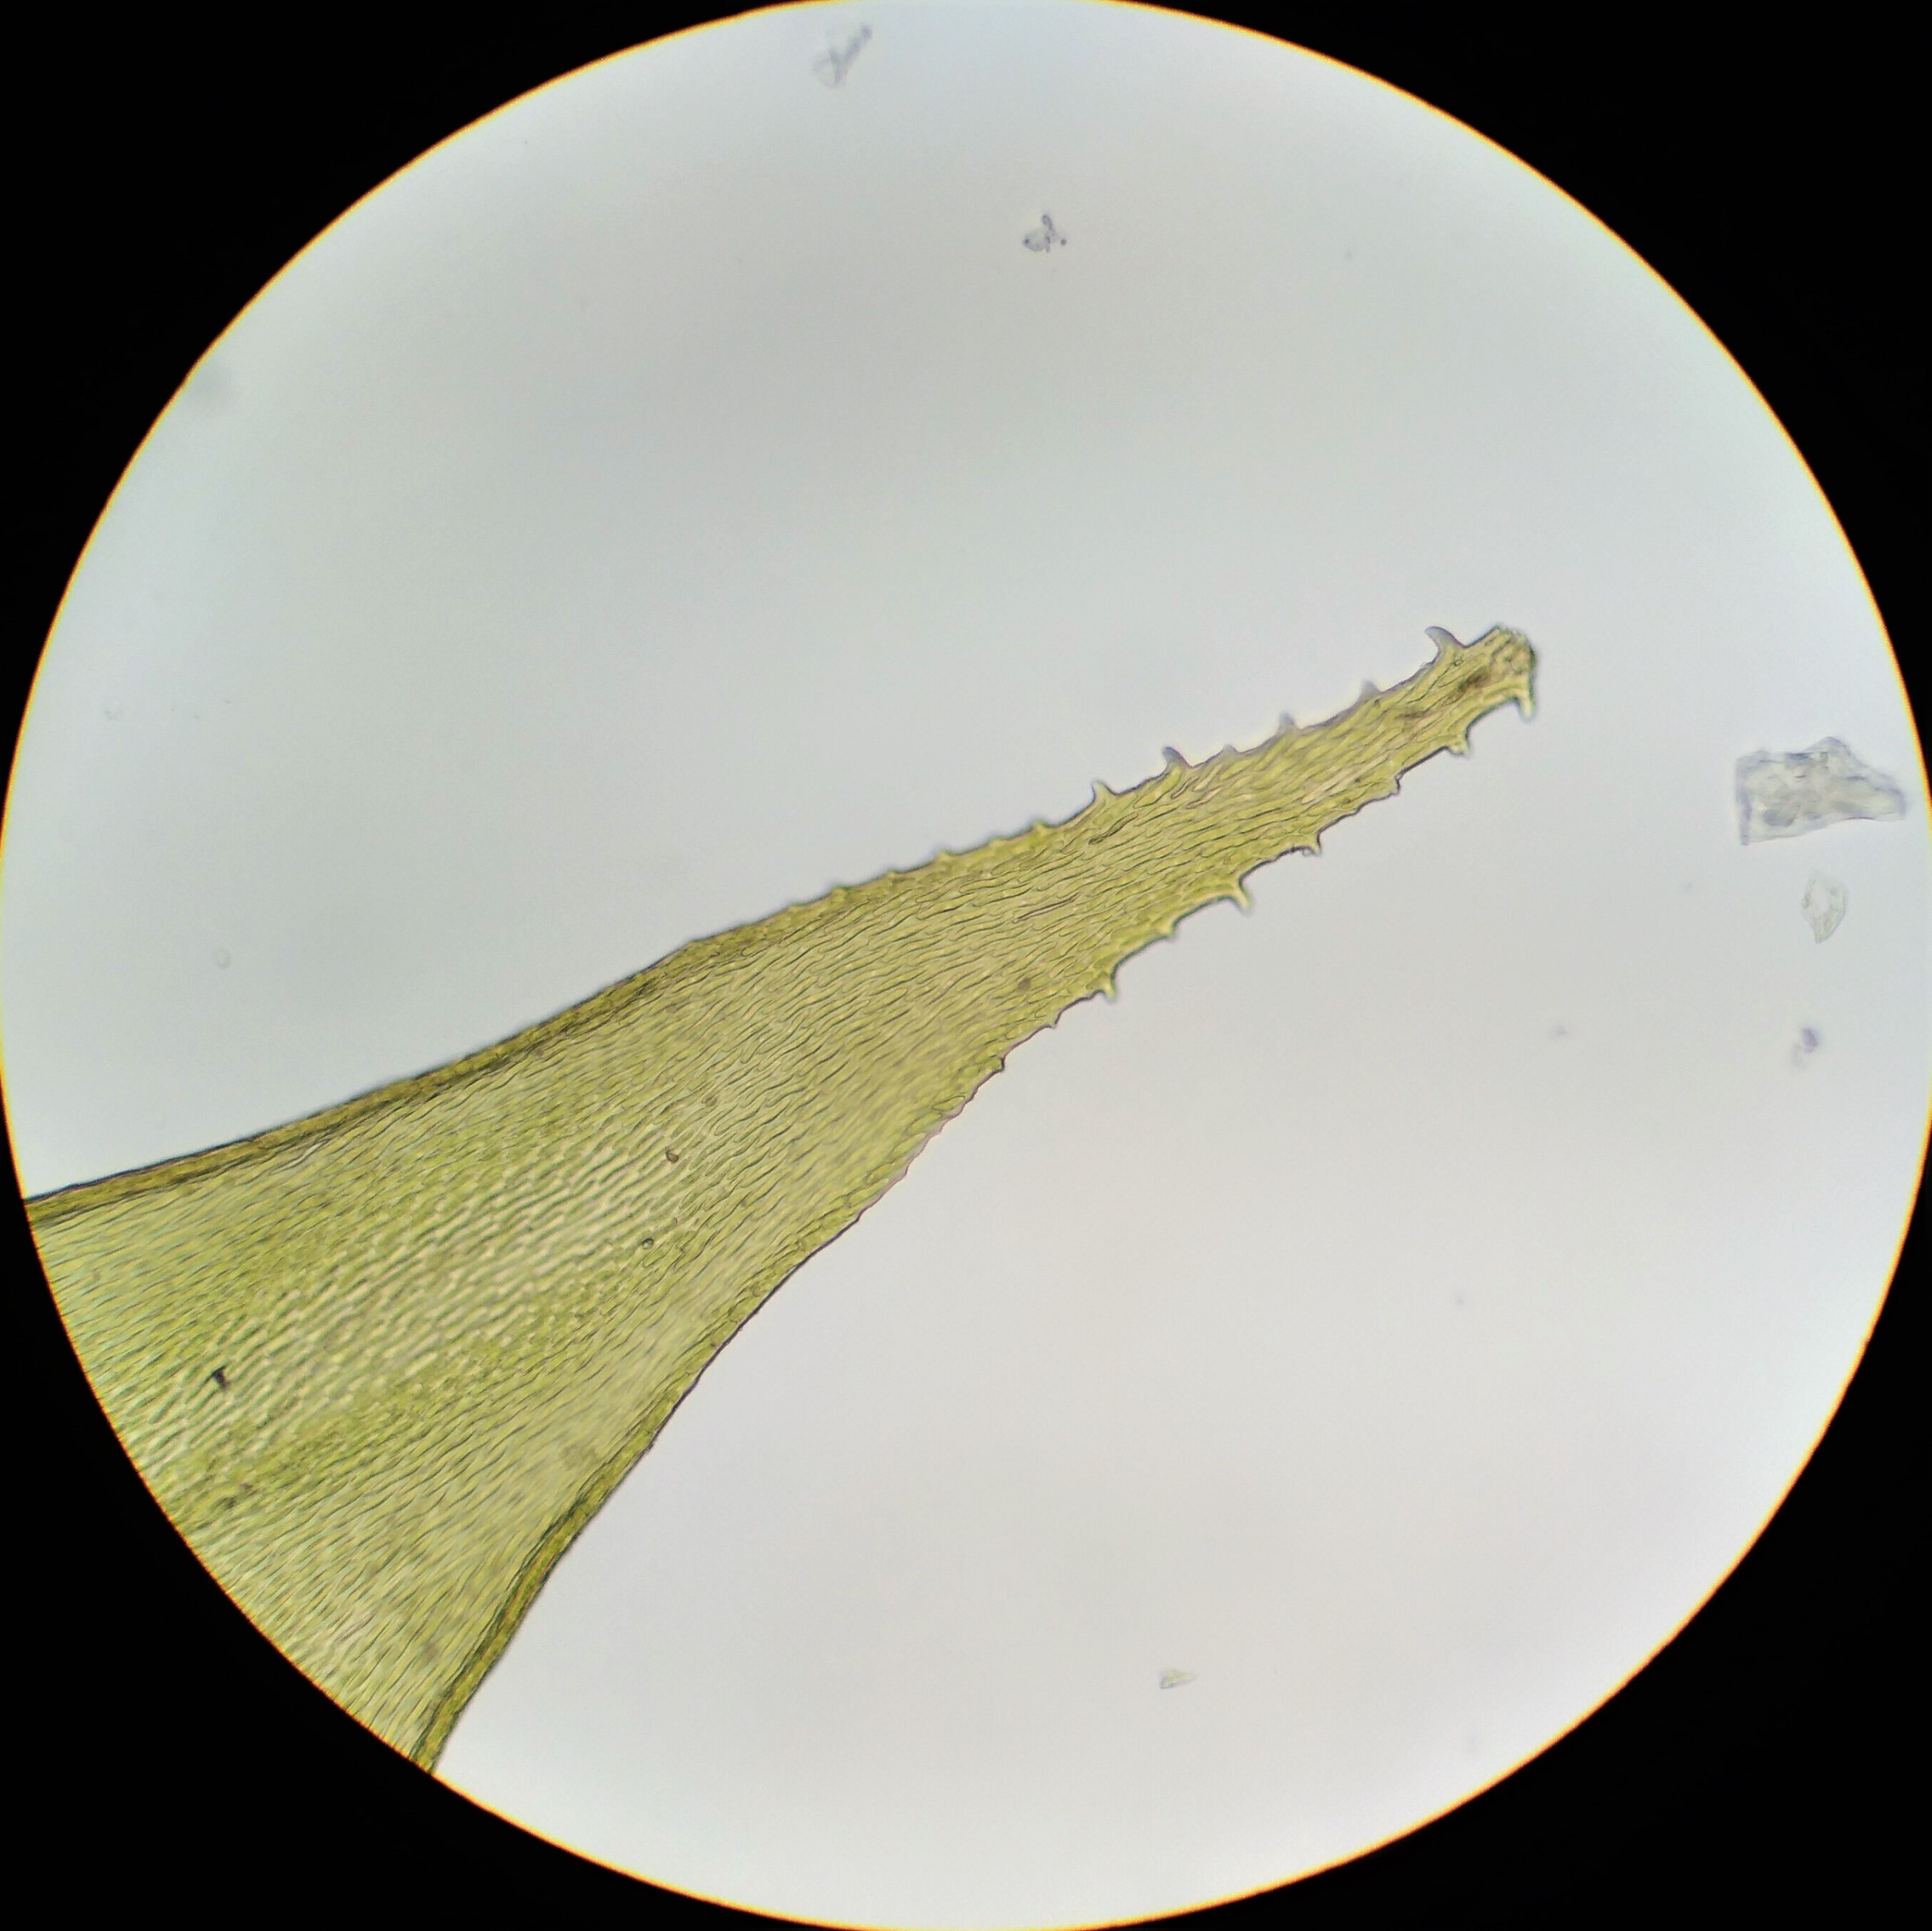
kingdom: Plantae
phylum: Bryophyta
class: Bryopsida
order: Hypnales
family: Antitrichiaceae
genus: Antitrichia
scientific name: Antitrichia curtipendula
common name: Åben krogtand
